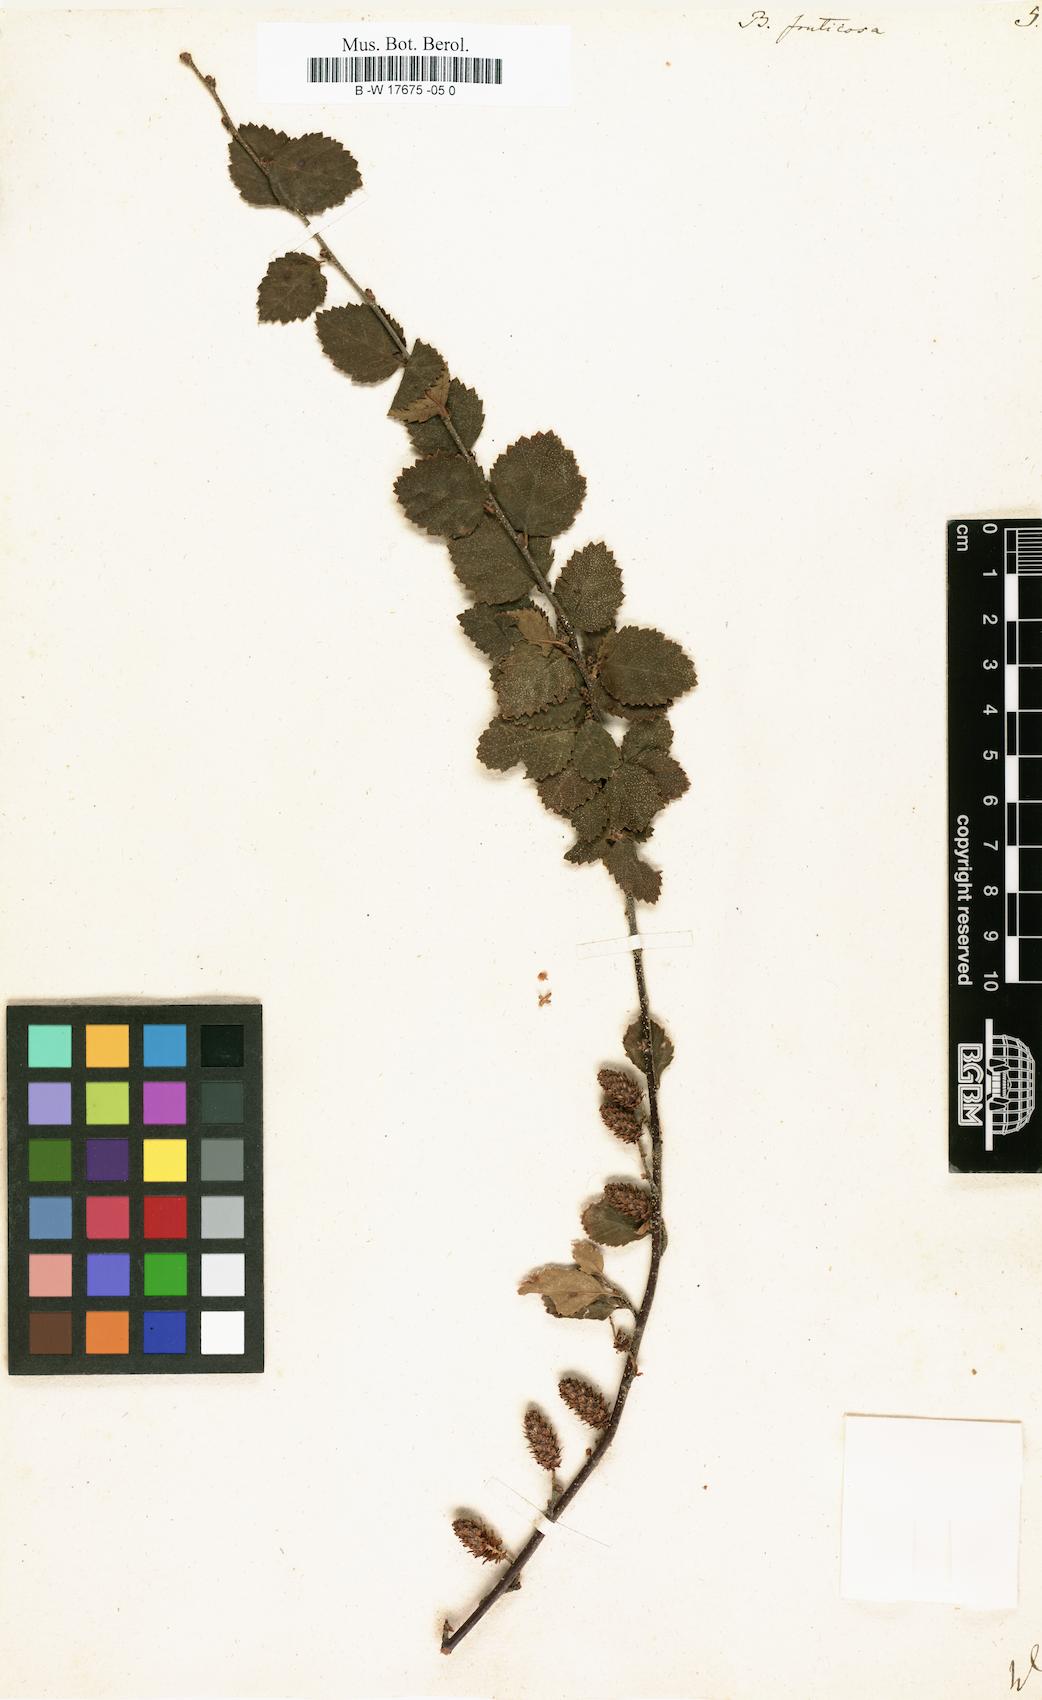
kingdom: Plantae
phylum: Tracheophyta
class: Magnoliopsida
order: Fagales
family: Betulaceae
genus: Betula
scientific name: Betula fruticosa
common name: Japanese bog birch
